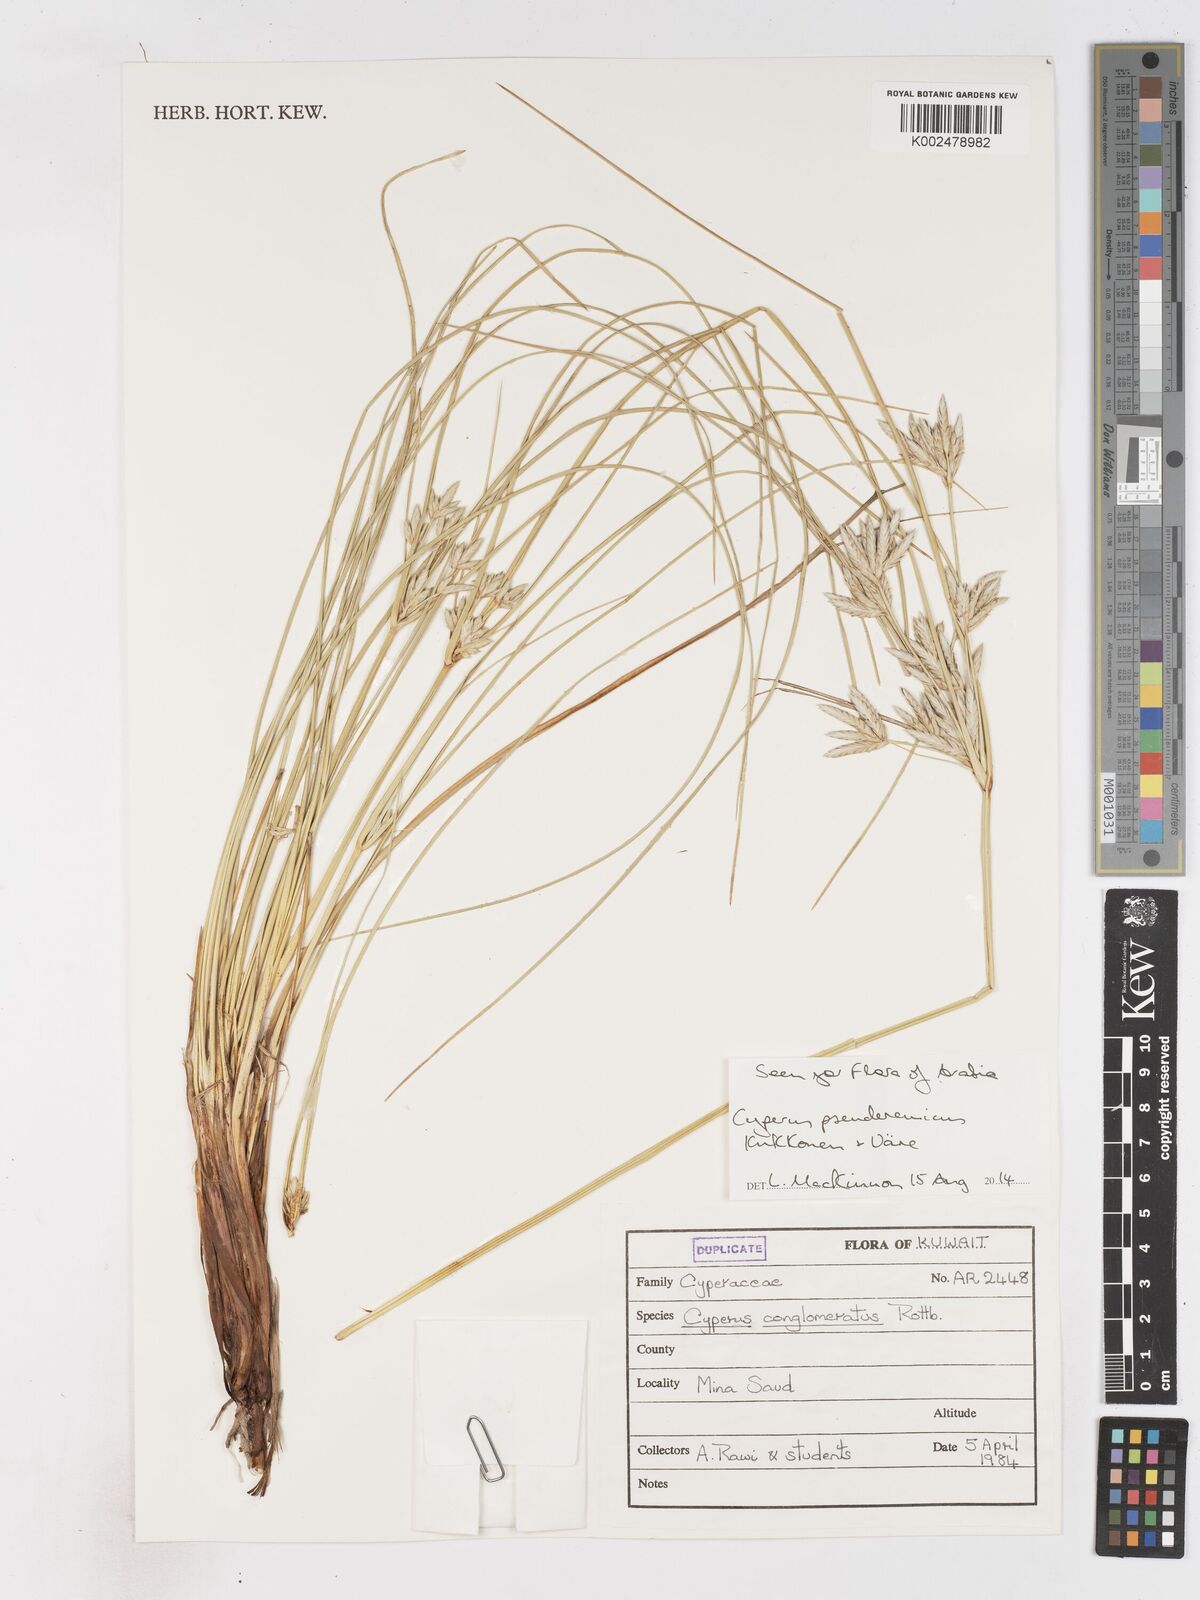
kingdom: Plantae
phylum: Tracheophyta
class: Liliopsida
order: Poales
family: Cyperaceae
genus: Cyperus
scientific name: Cyperus pseuderemicus
